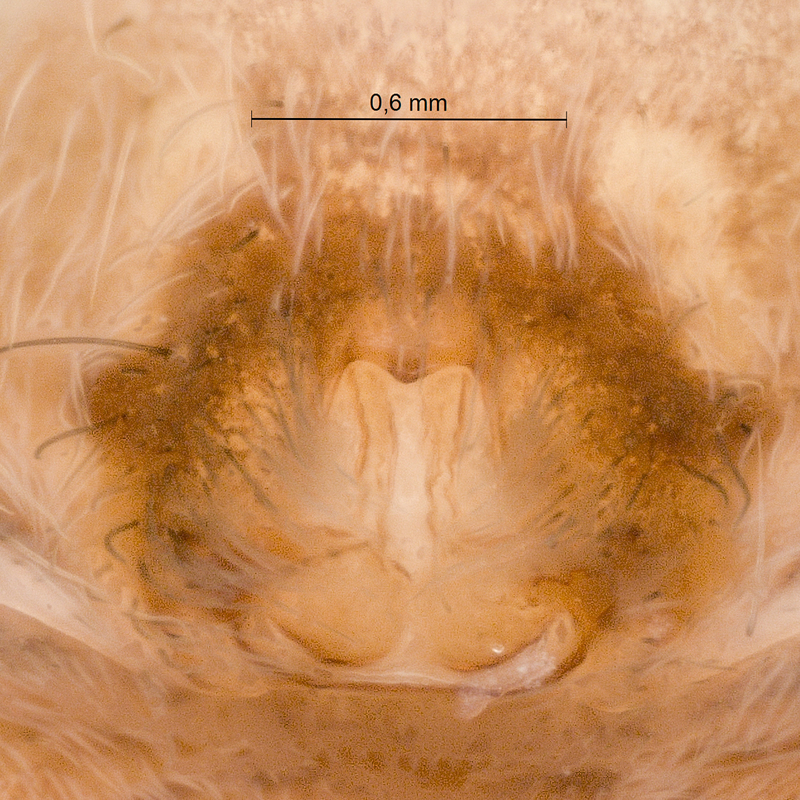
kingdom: Animalia
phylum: Arthropoda
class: Arachnida
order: Araneae
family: Lycosidae
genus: Pardosa
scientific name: Pardosa lugubris
